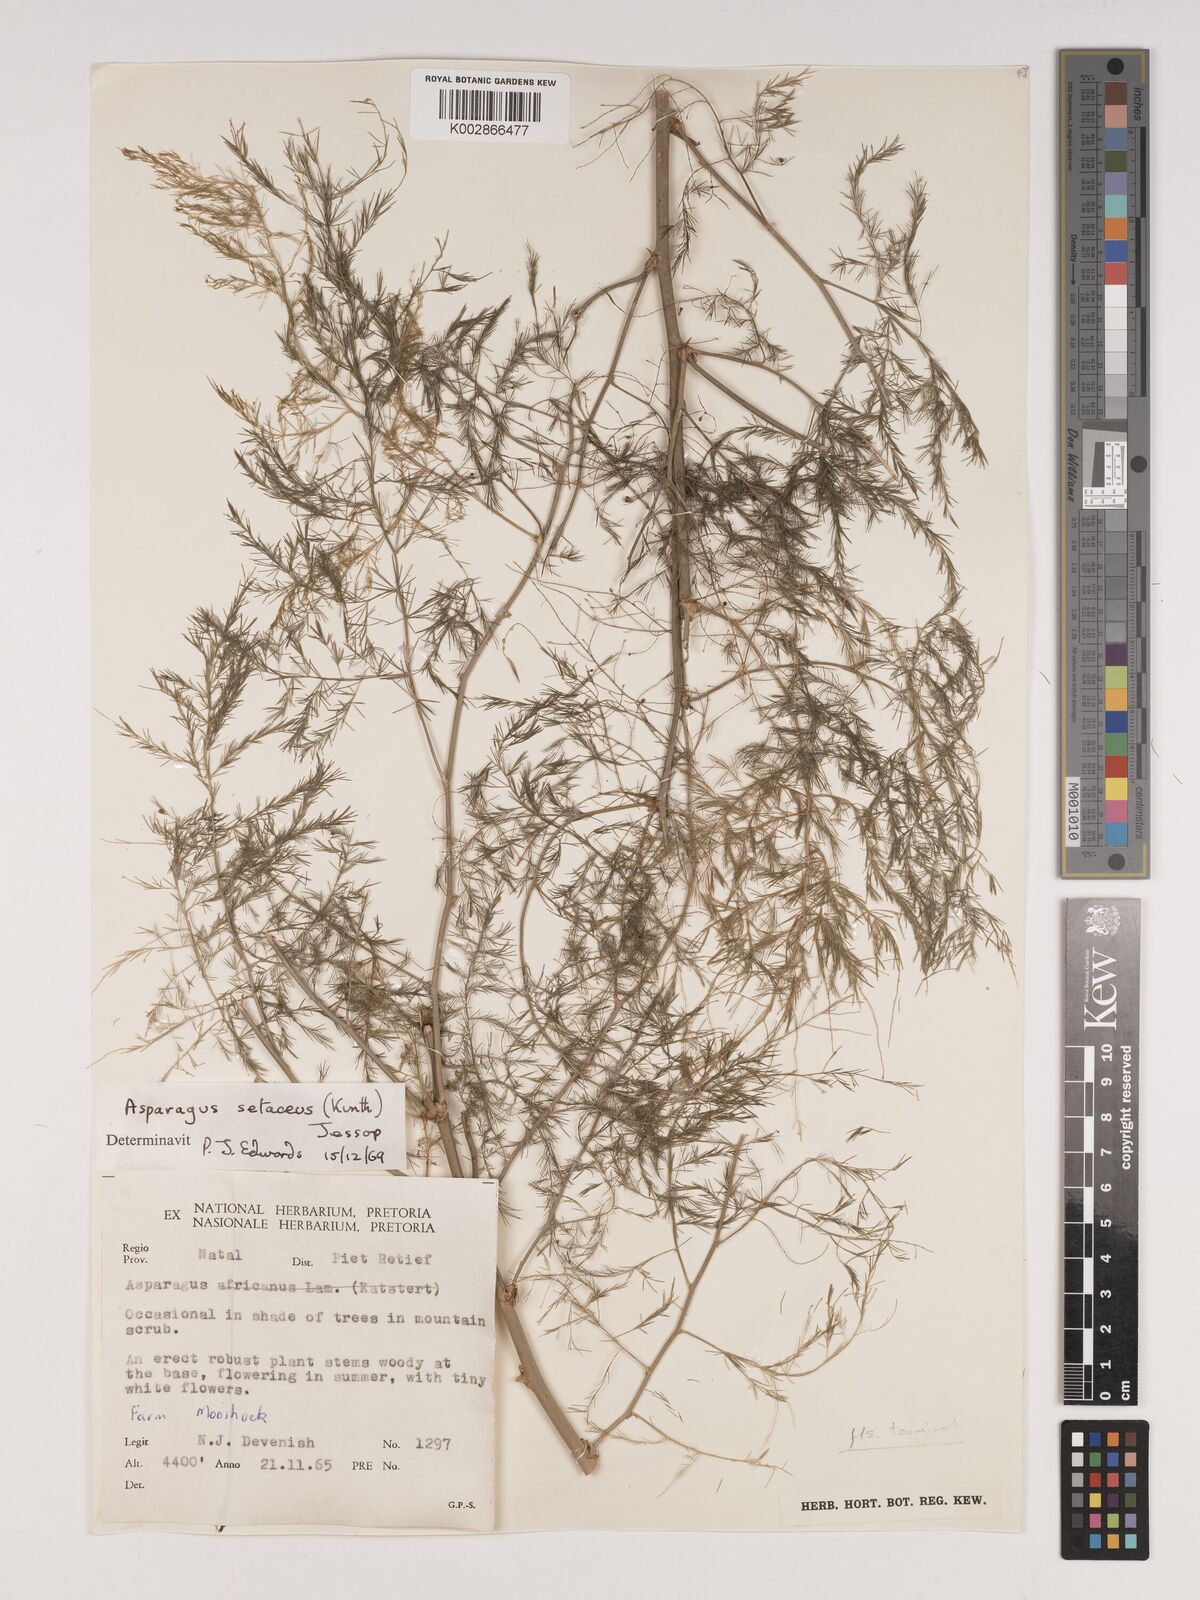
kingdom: Plantae
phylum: Tracheophyta
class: Liliopsida
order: Asparagales
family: Asparagaceae
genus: Asparagus
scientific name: Asparagus setaceus
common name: Common asparagus fern
